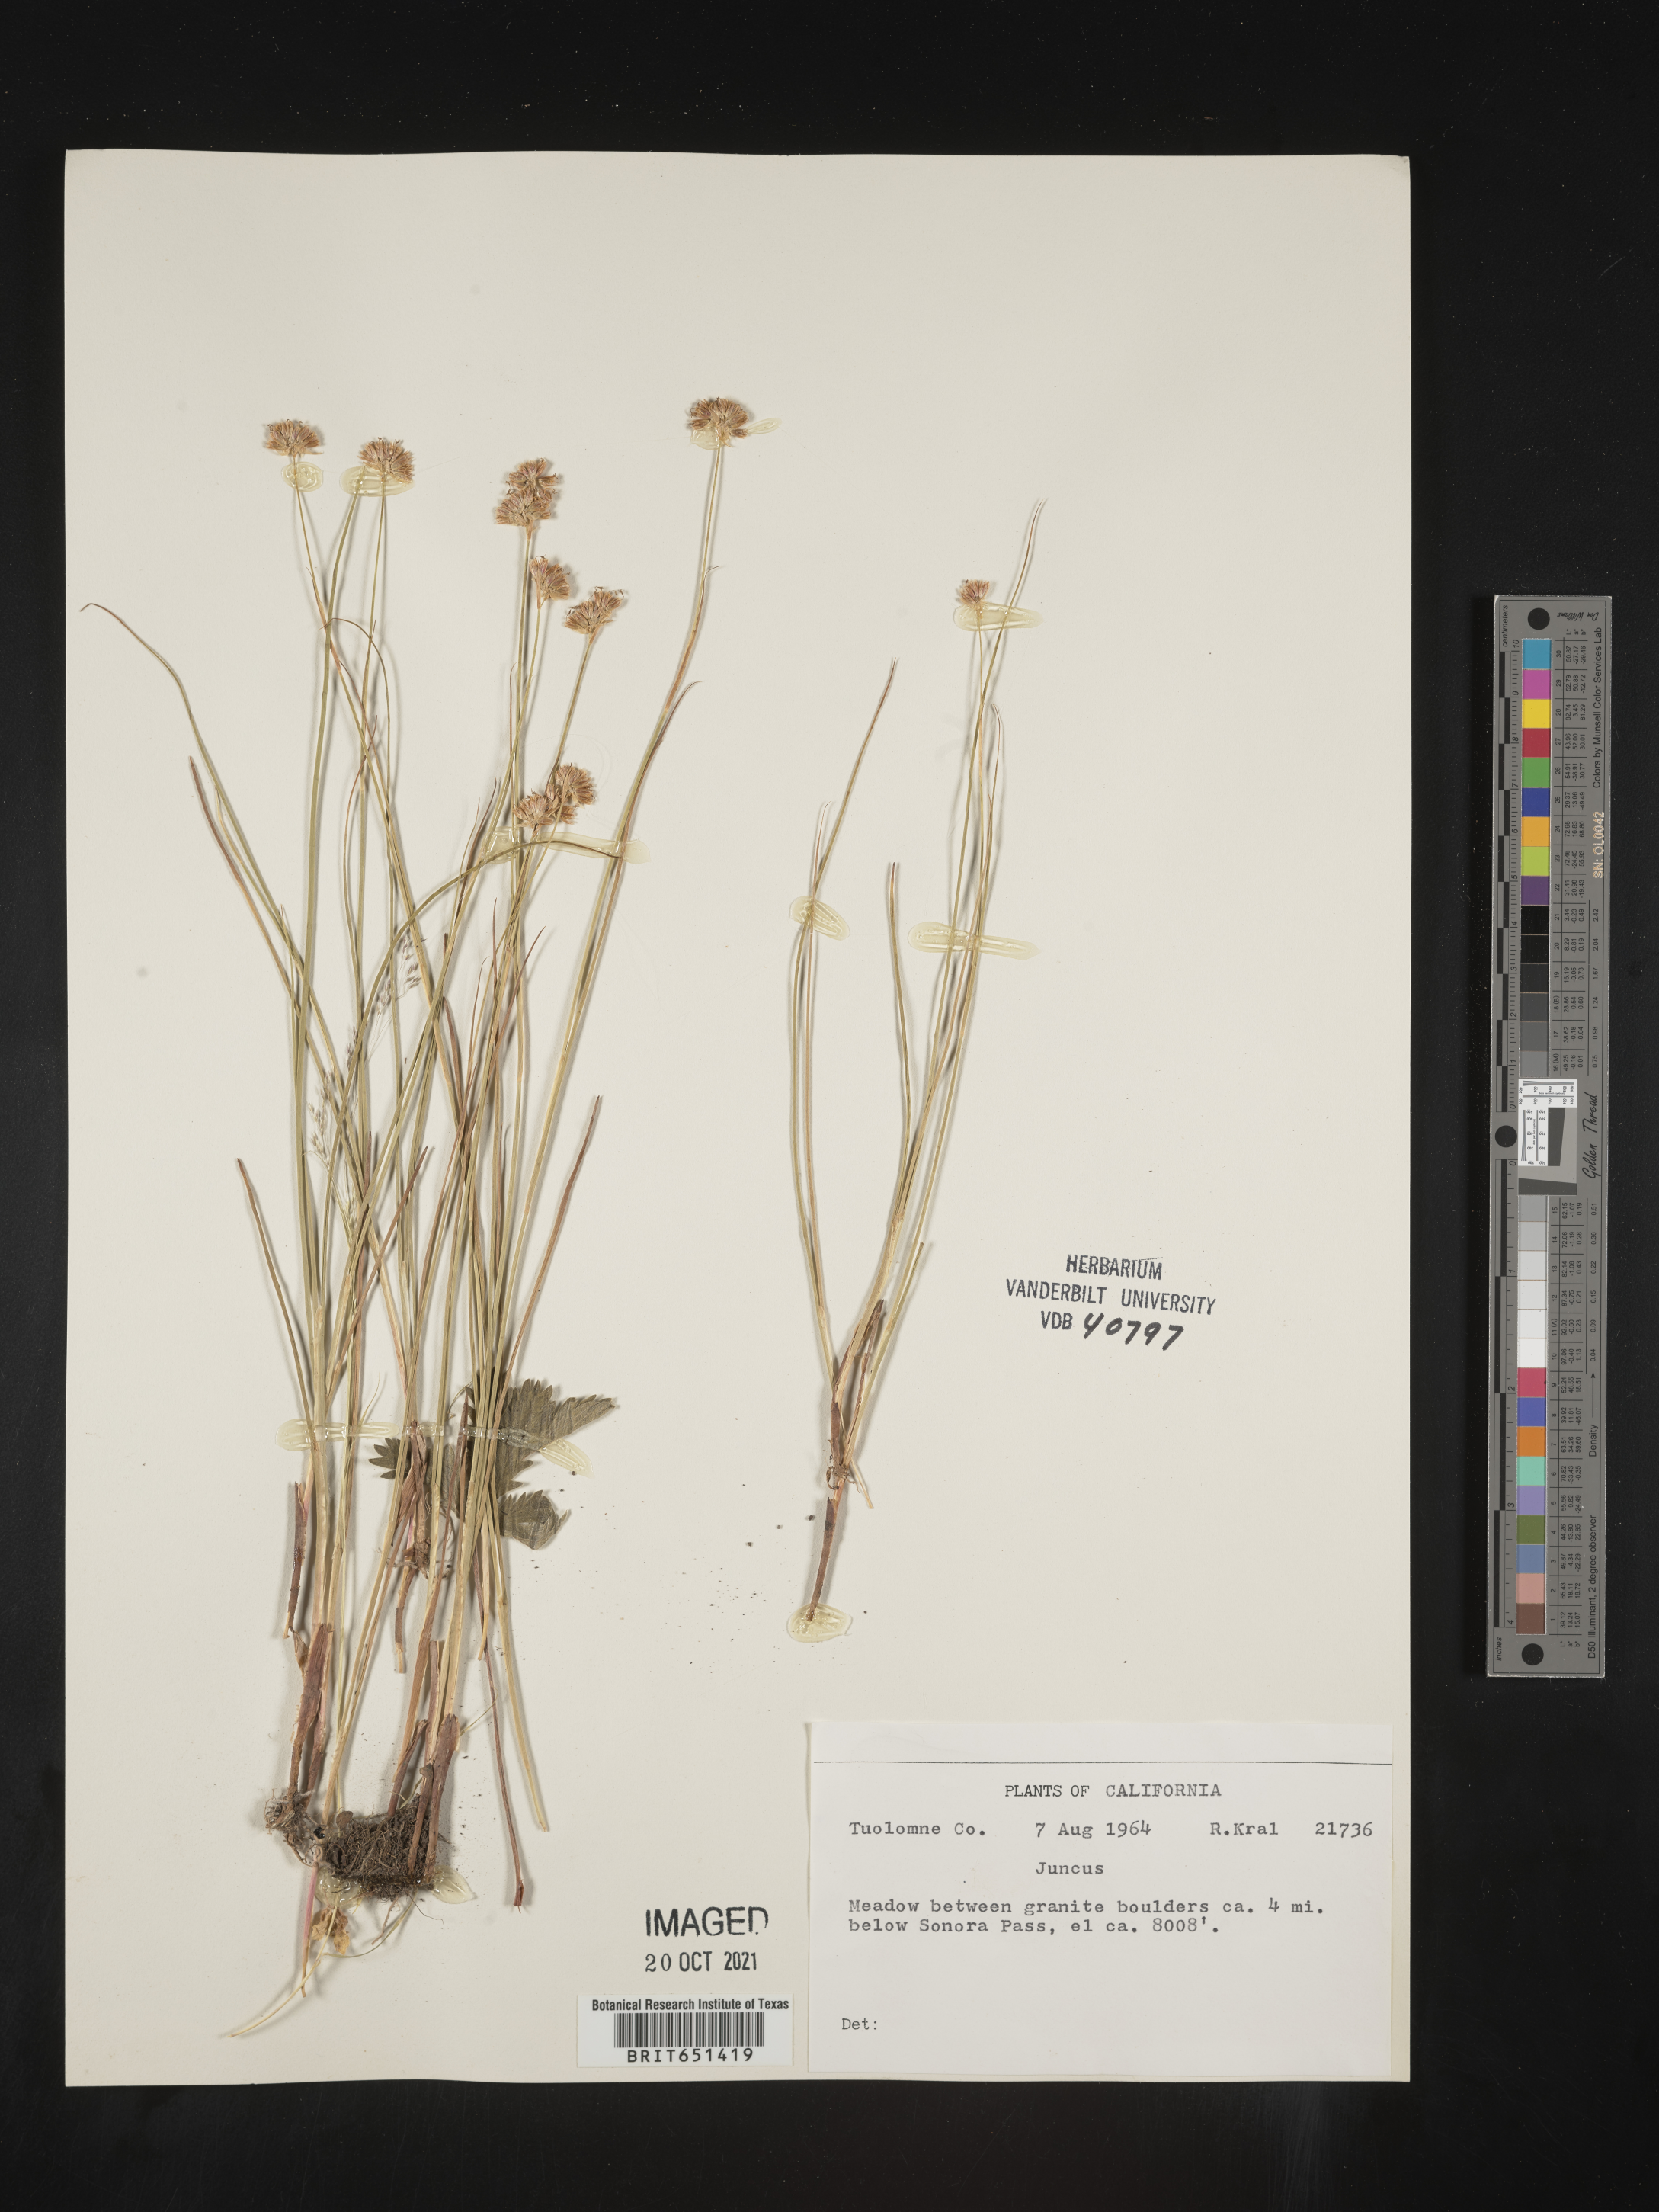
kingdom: Plantae
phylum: Tracheophyta
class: Liliopsida
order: Poales
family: Juncaceae
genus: Juncus
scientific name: Juncus
